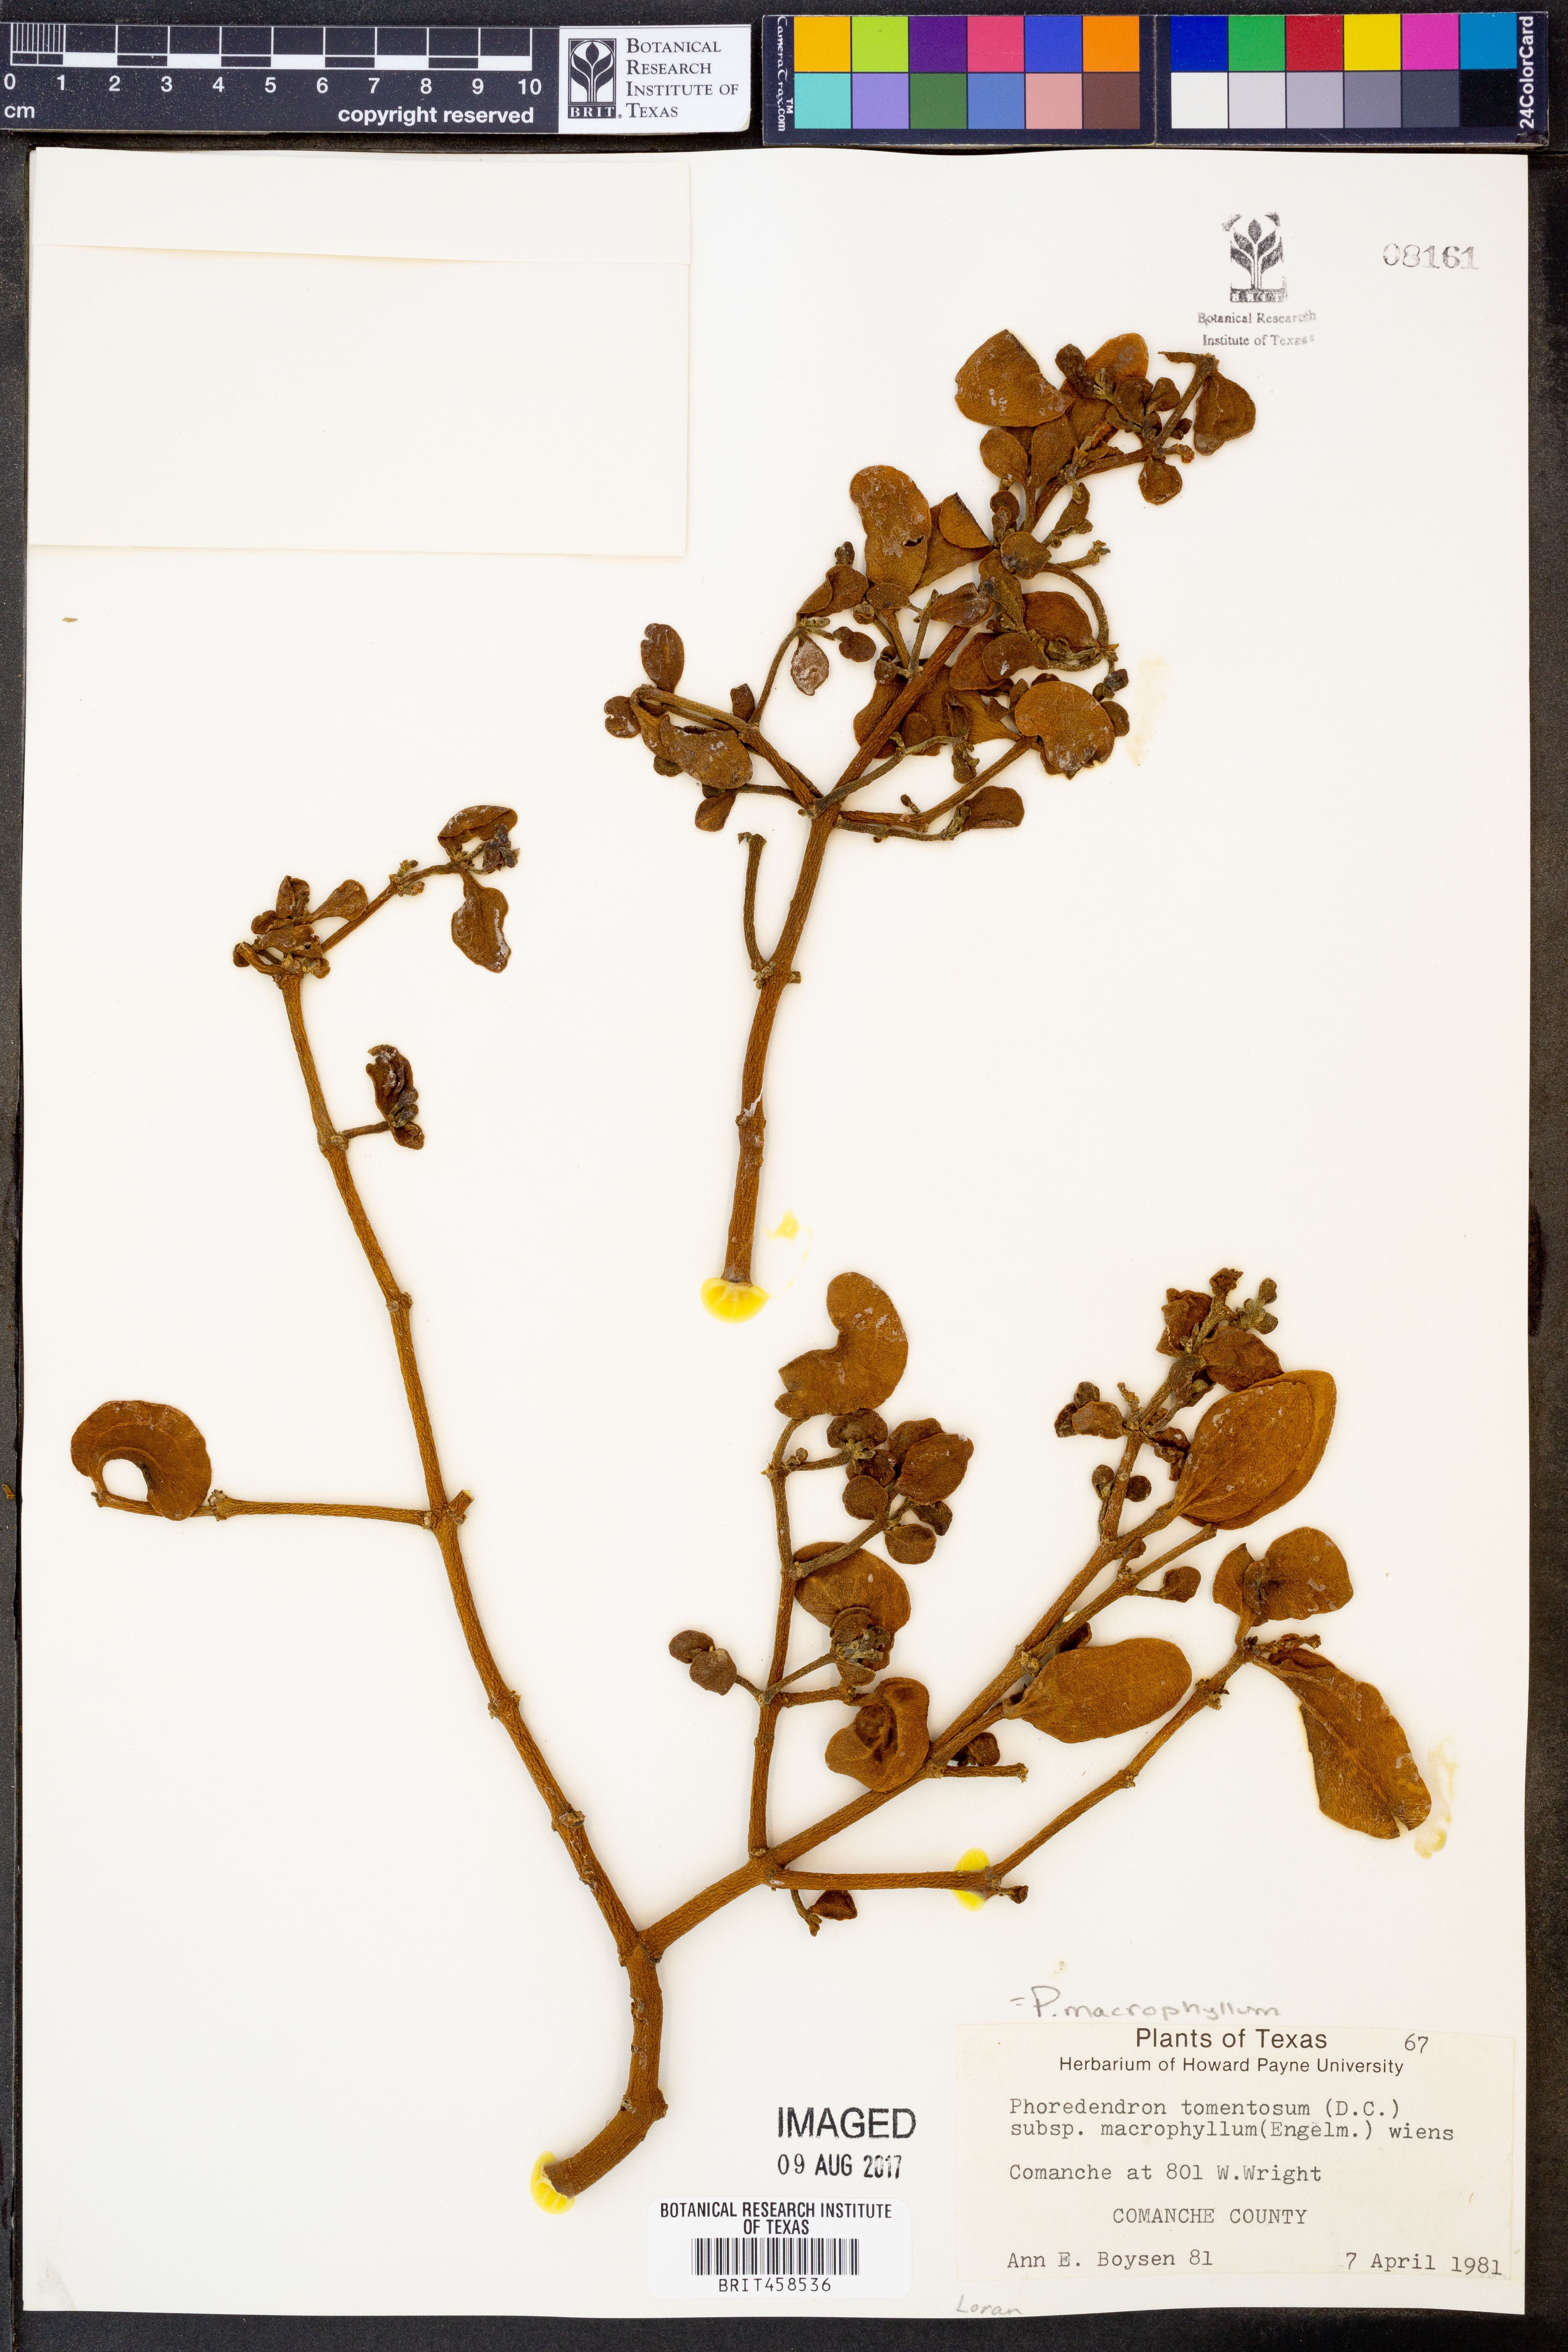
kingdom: Plantae
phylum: Tracheophyta
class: Magnoliopsida
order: Santalales
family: Viscaceae
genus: Phoradendron
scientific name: Phoradendron leucarpum
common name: Pacific mistletoe
